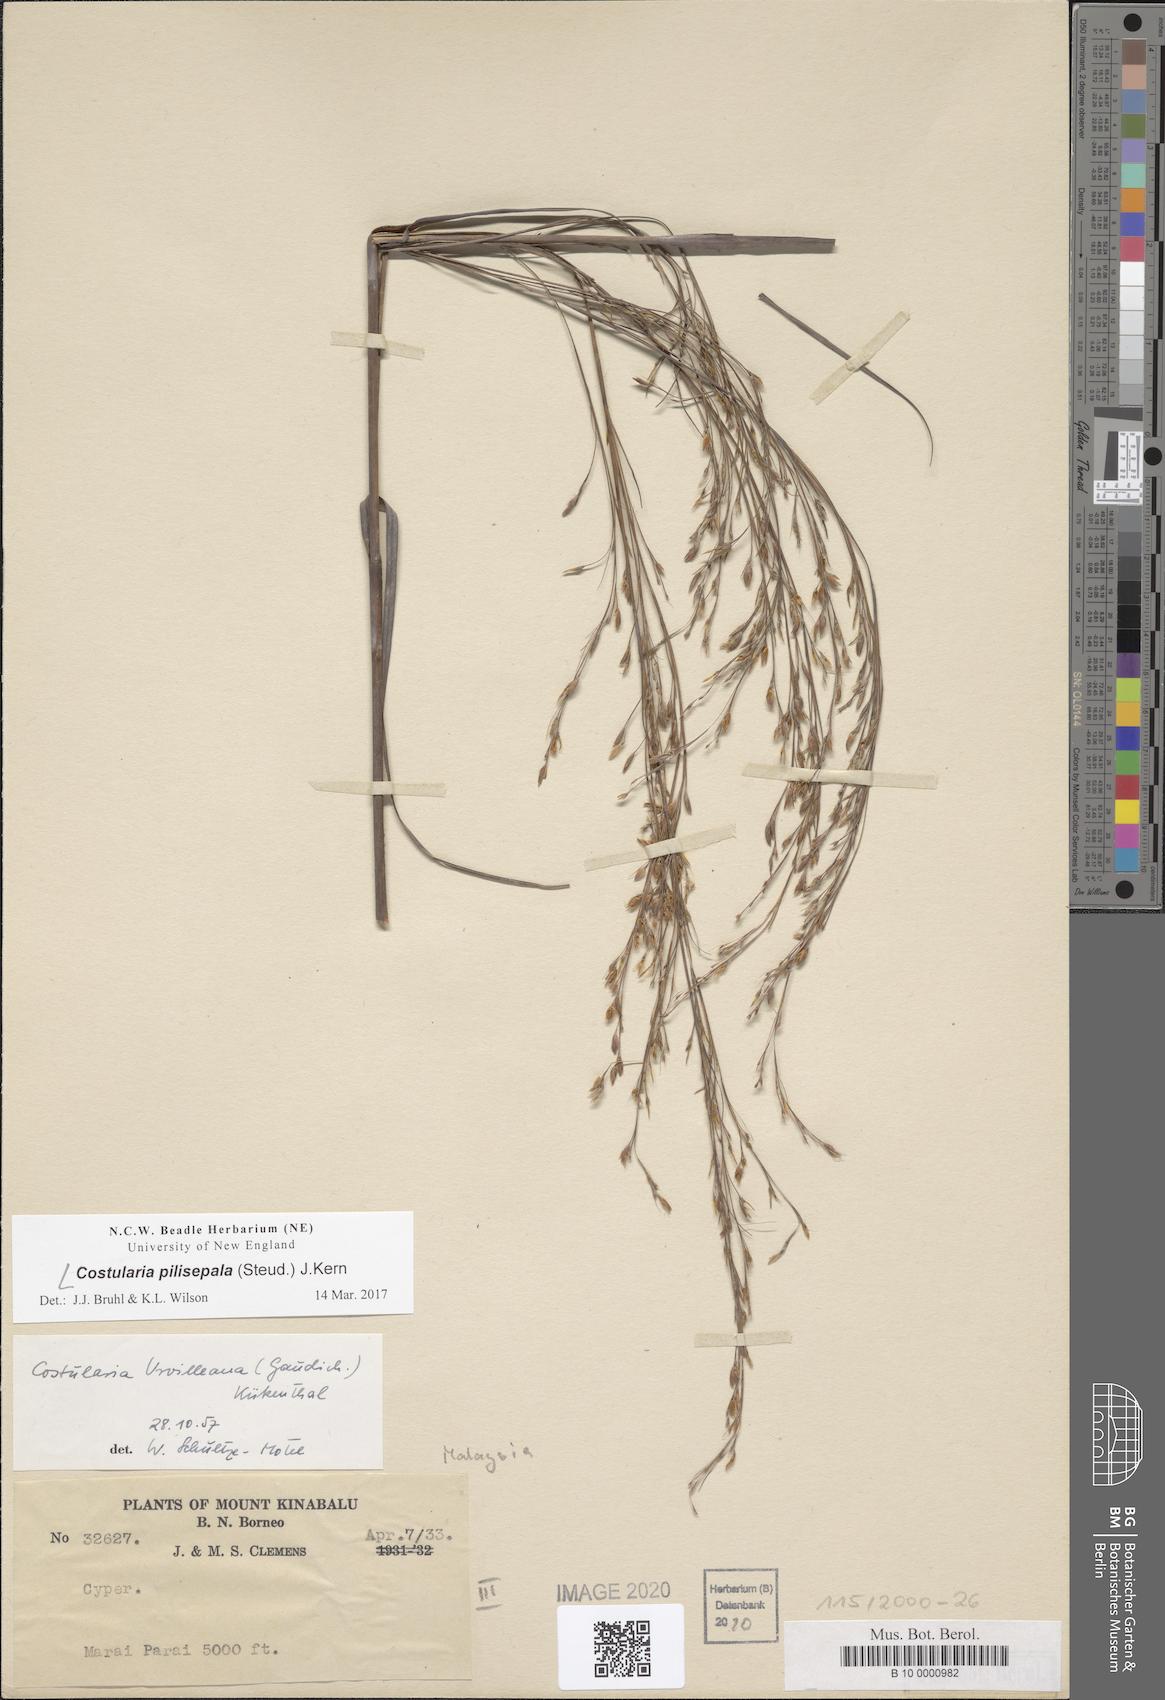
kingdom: Plantae
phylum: Tracheophyta
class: Liliopsida
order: Poales
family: Cyperaceae
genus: Tetraria
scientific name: Tetraria pilisepala
